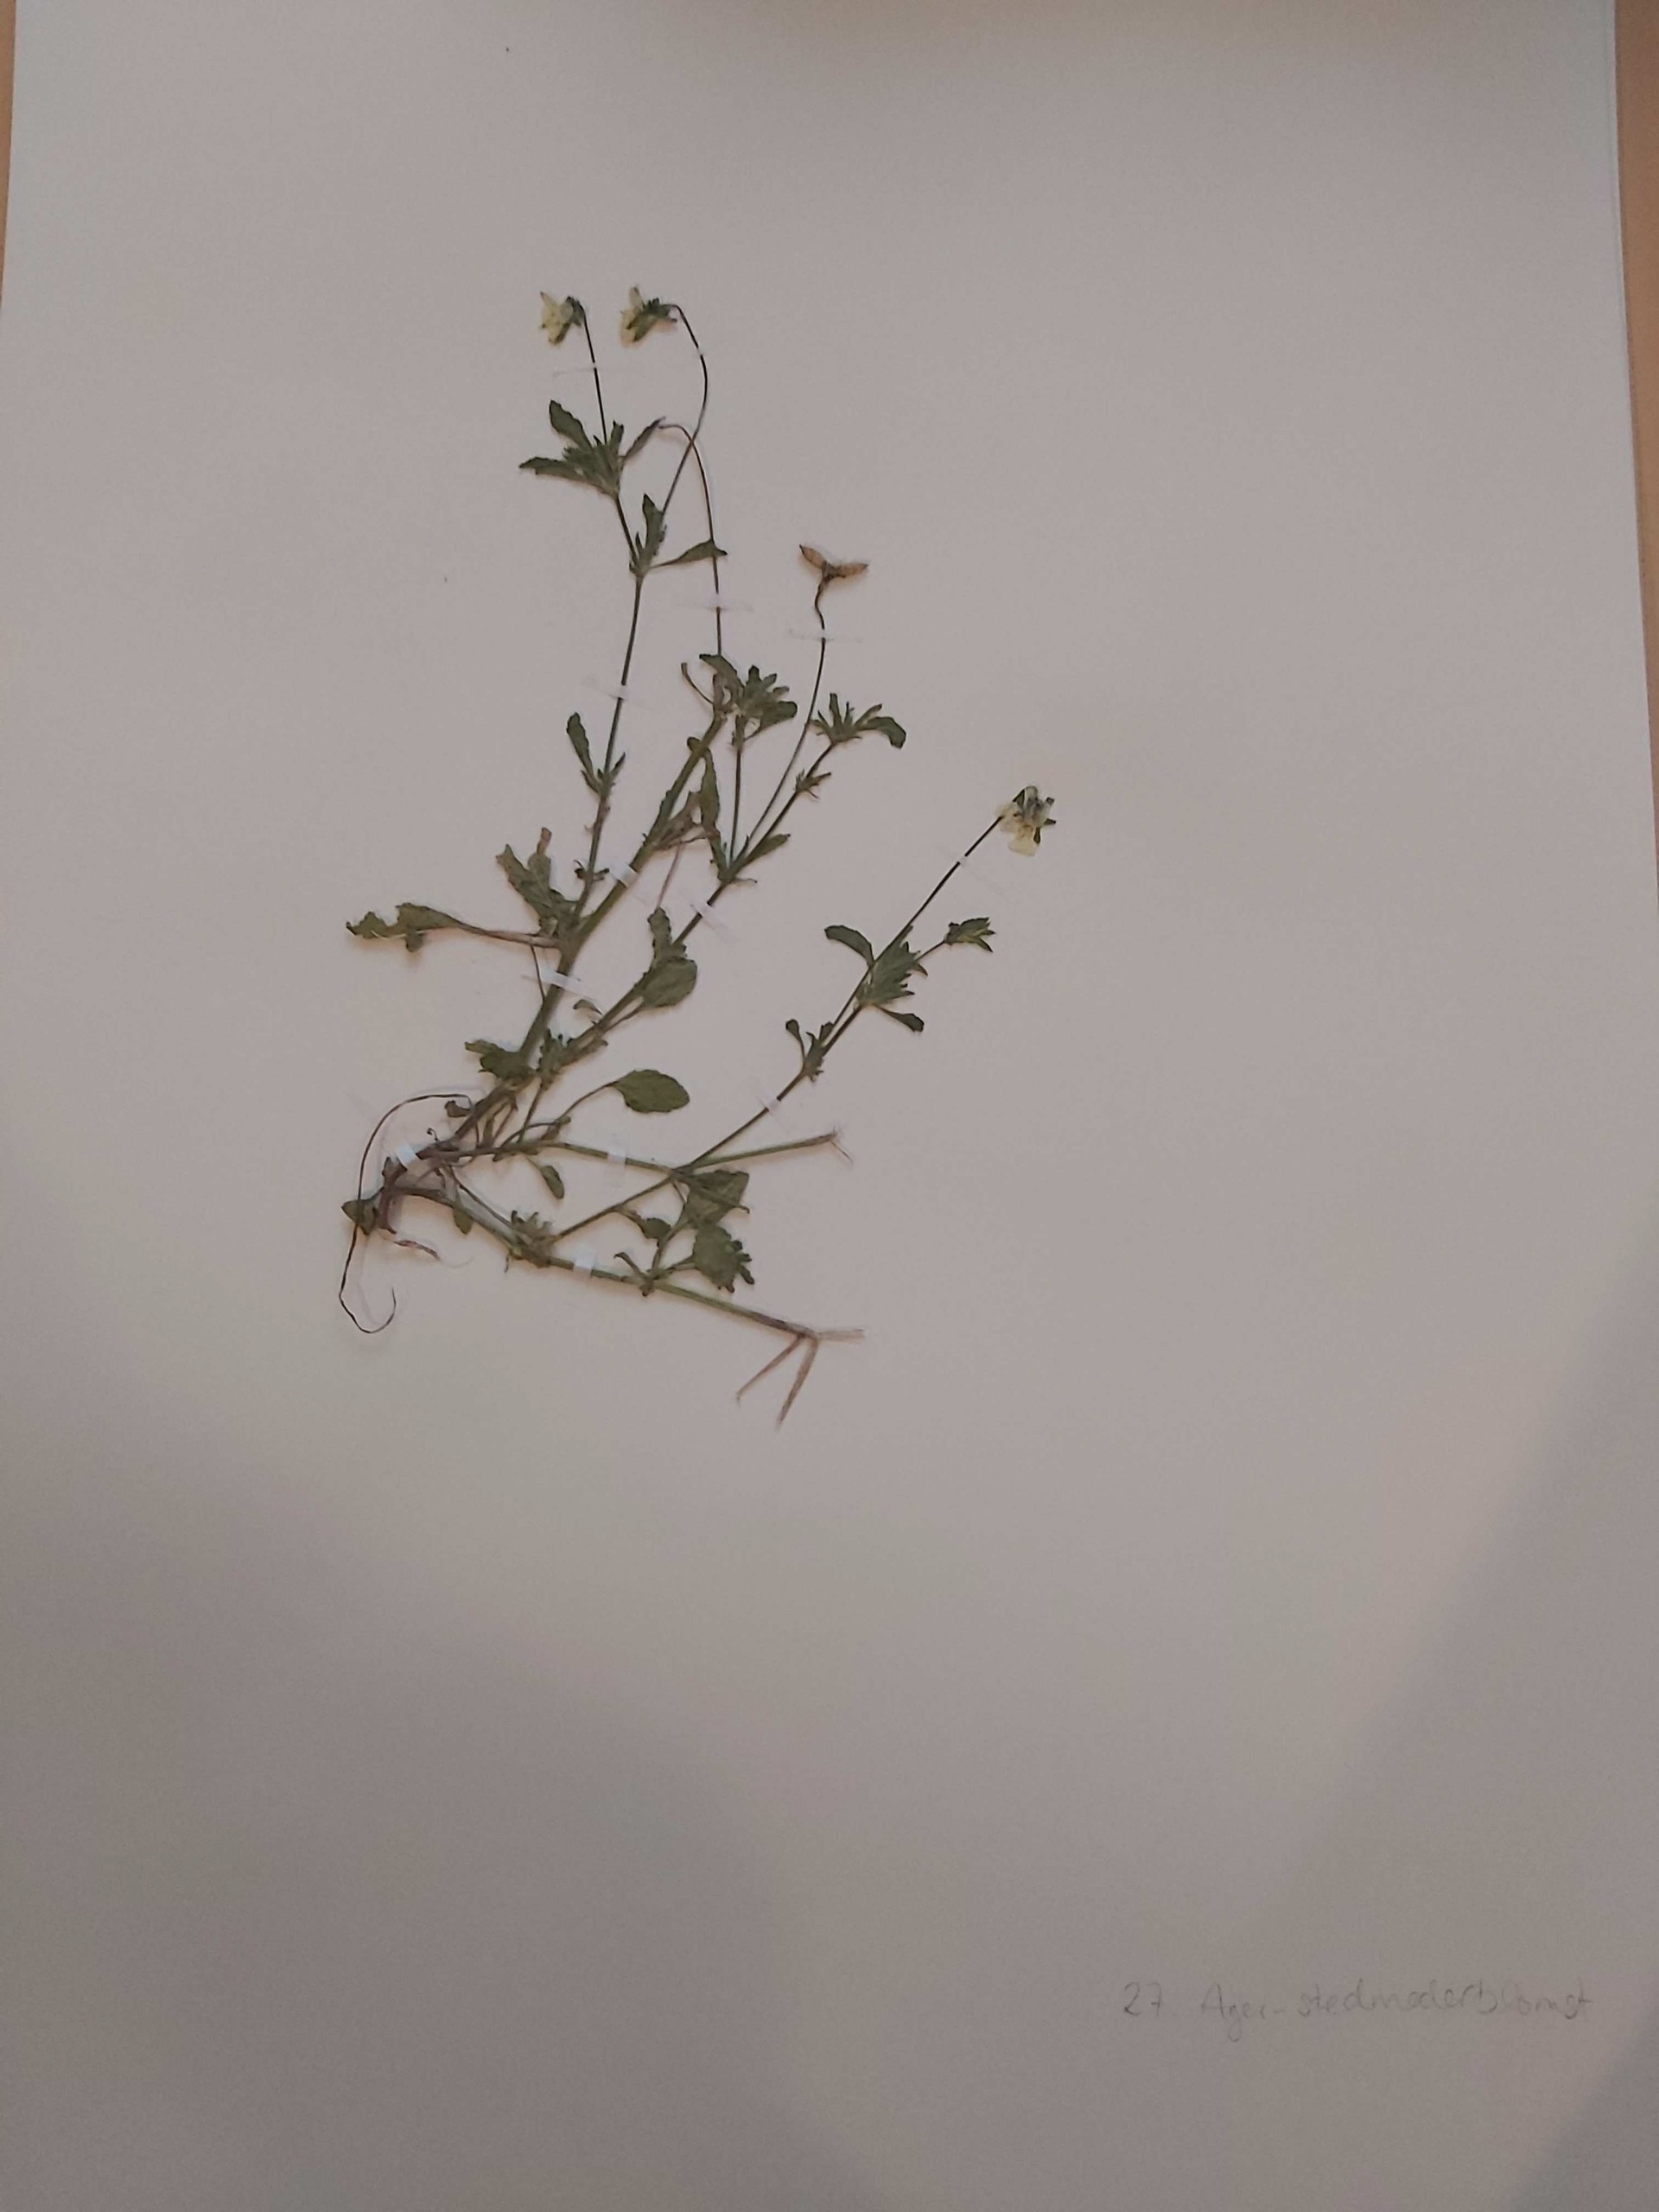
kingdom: Plantae
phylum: Tracheophyta
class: Magnoliopsida
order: Malpighiales
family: Violaceae
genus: Viola
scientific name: Viola arvensis
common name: Ager-stedmoderblomst
